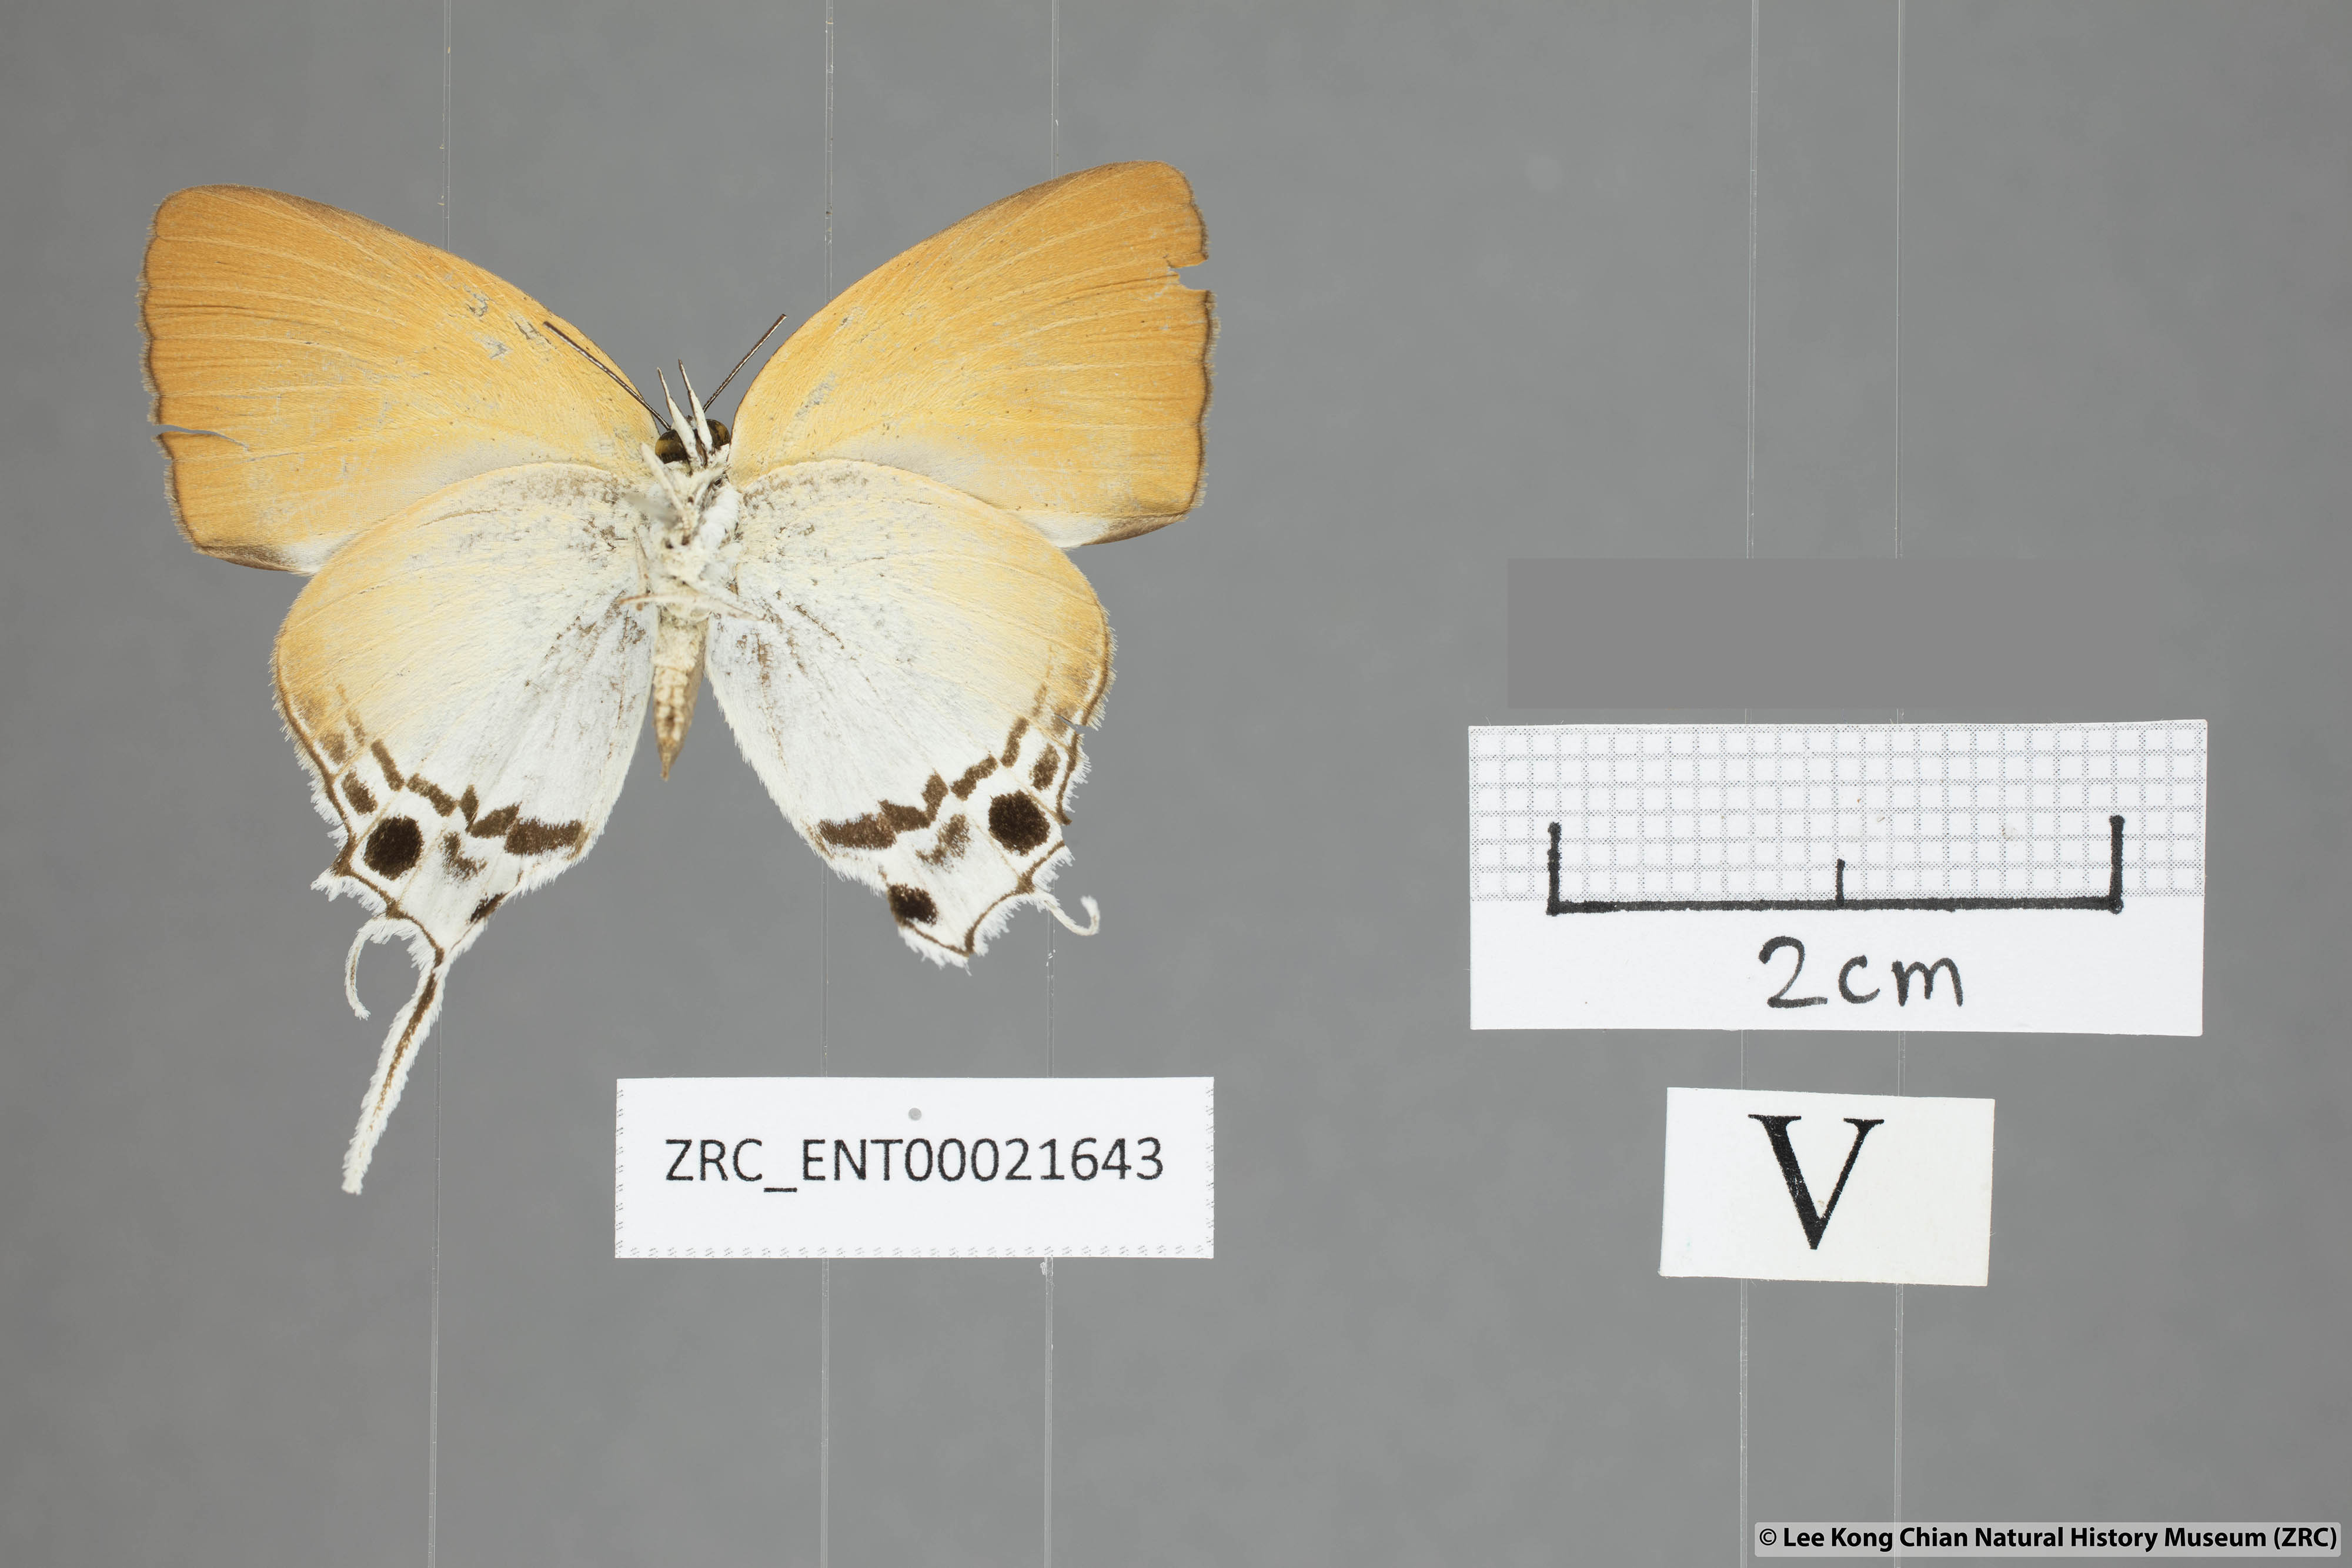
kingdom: Animalia
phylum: Arthropoda
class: Insecta
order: Lepidoptera
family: Lycaenidae
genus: Manto
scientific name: Manto hypoleuca
